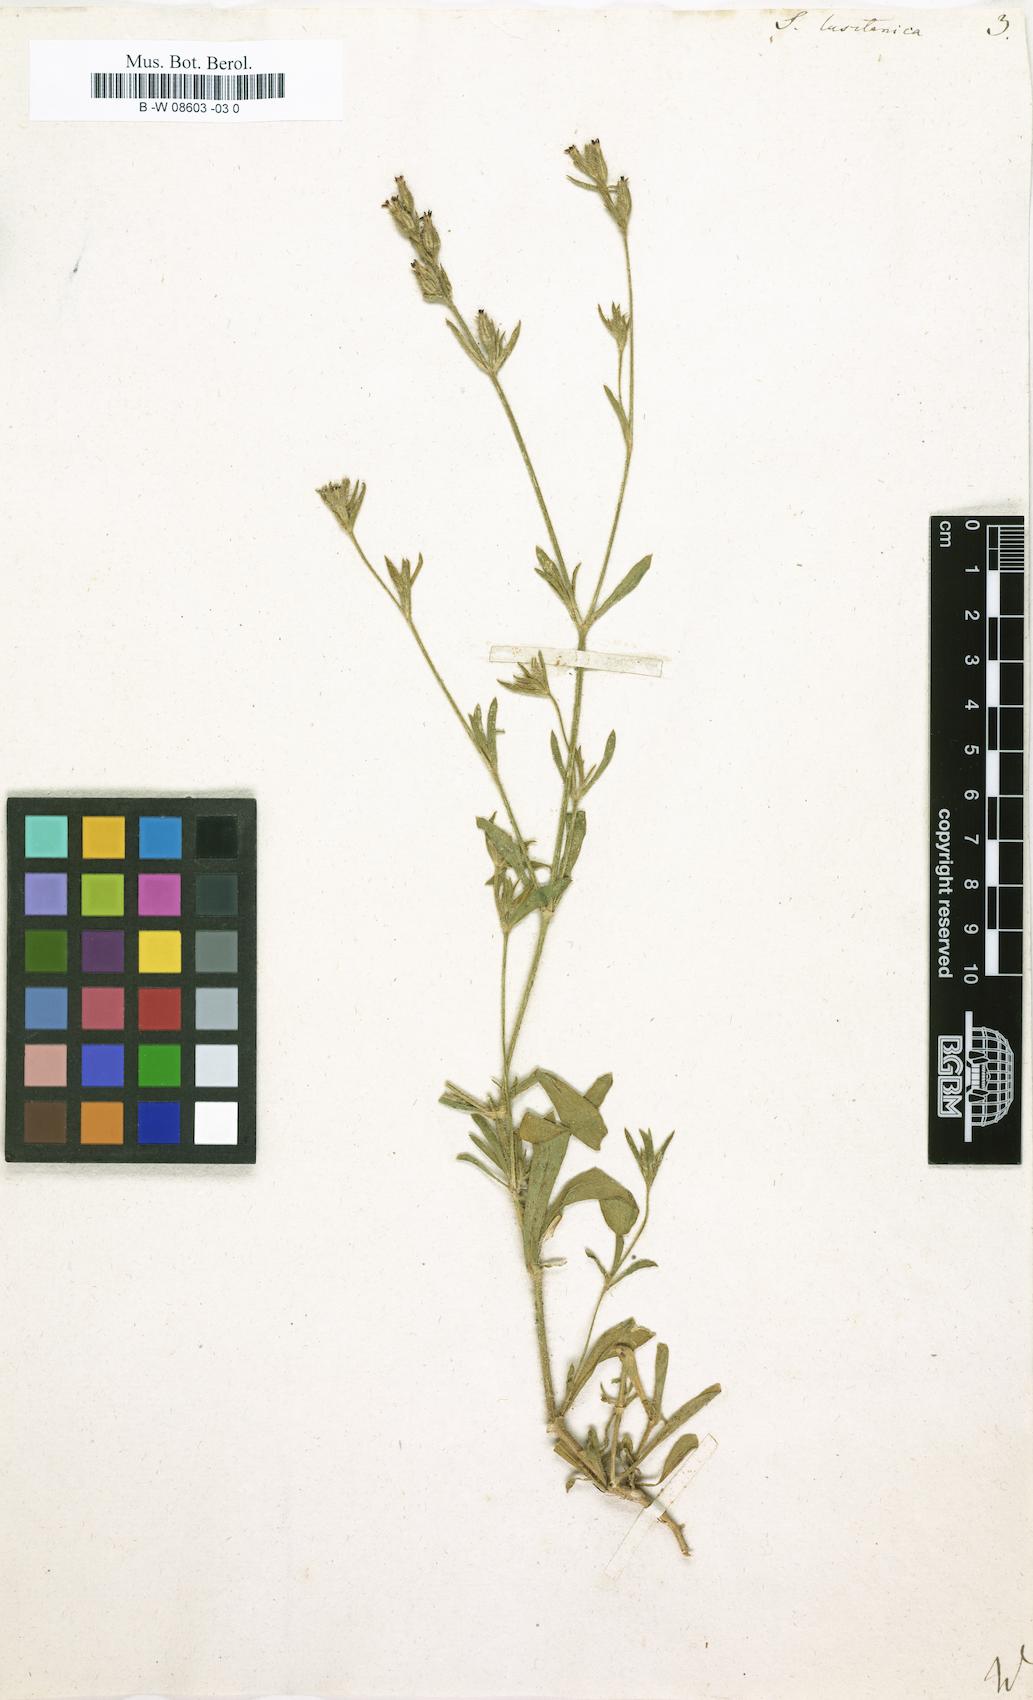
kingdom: Plantae
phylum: Tracheophyta
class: Magnoliopsida
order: Caryophyllales
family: Caryophyllaceae
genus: Silene
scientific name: Silene gallica
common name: Small-flowered catchfly
